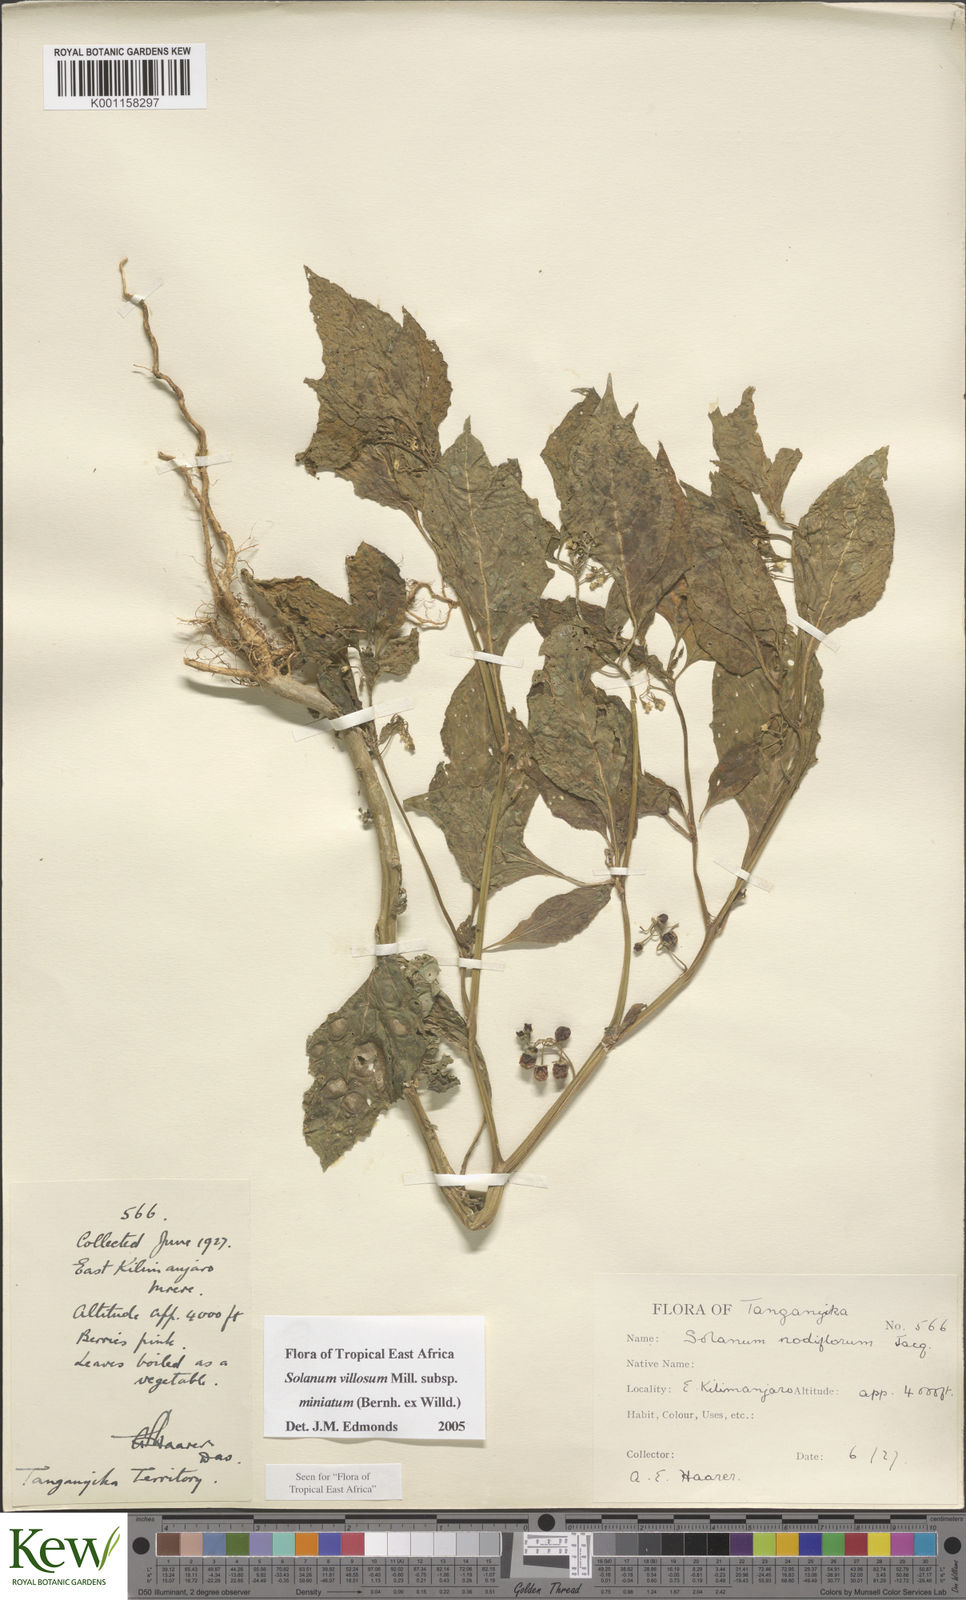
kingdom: Plantae
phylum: Tracheophyta
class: Magnoliopsida
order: Solanales
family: Solanaceae
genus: Solanum
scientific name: Solanum villosum
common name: Red nightshade
